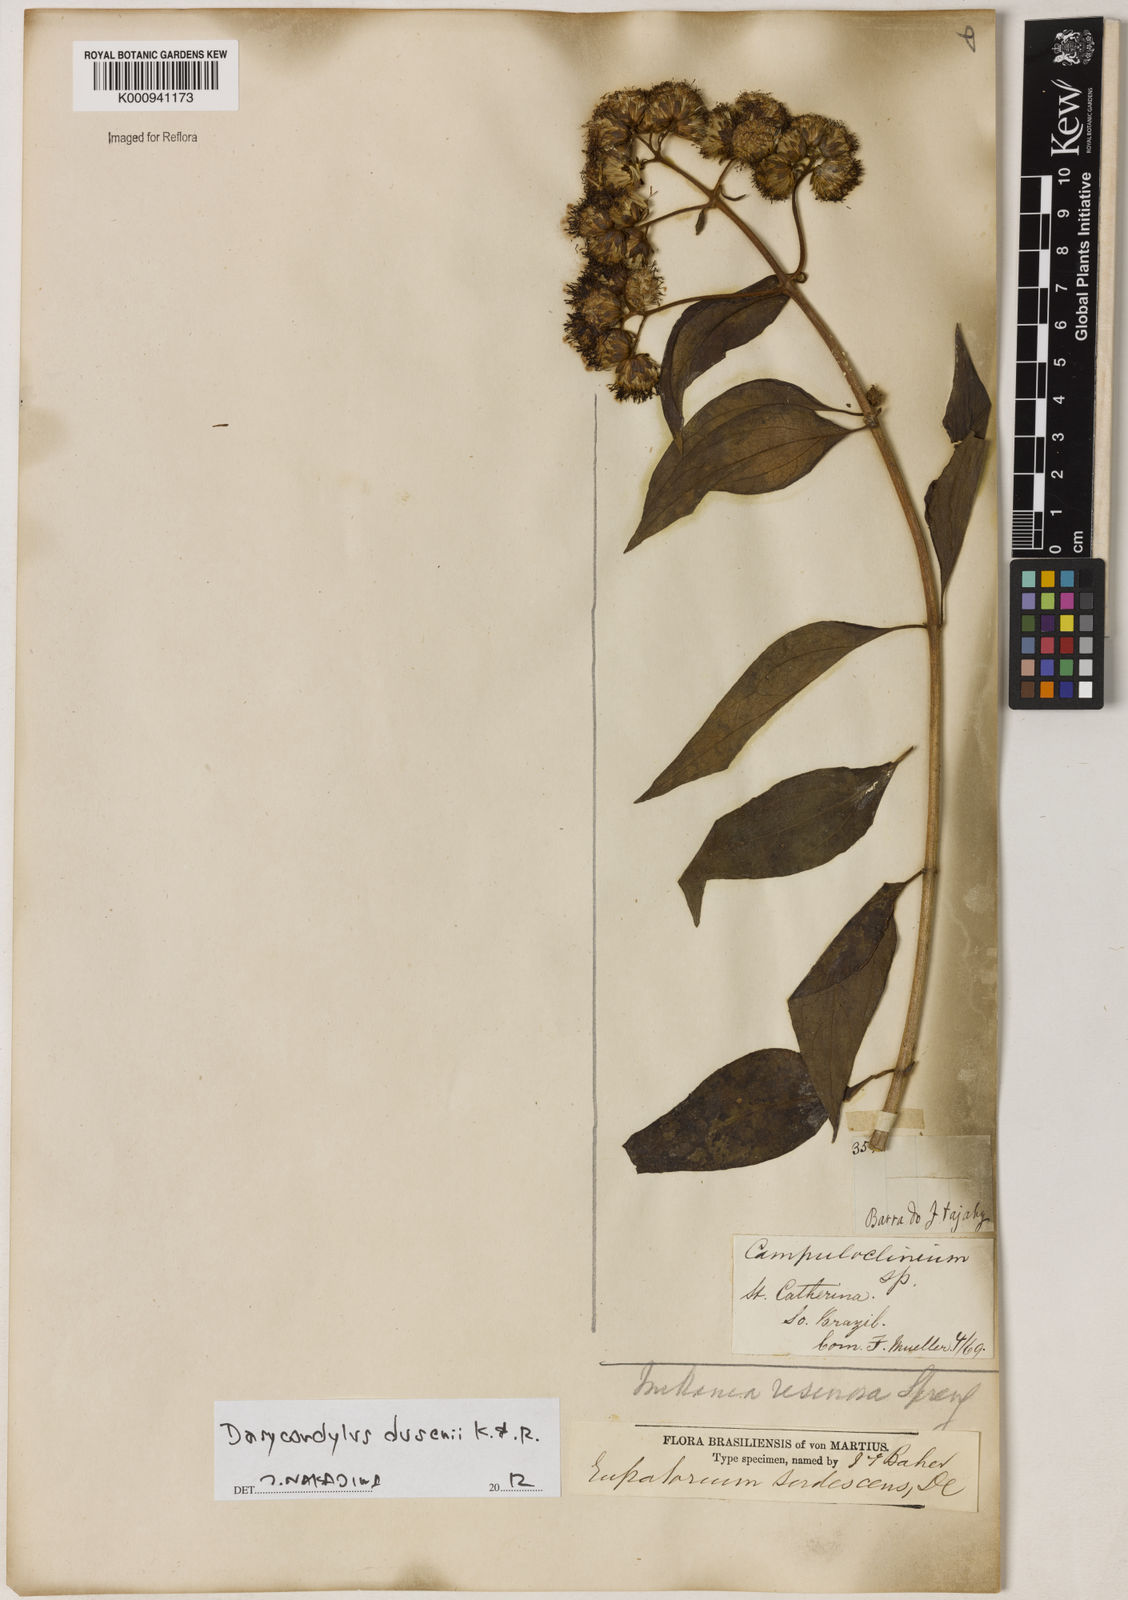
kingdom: Plantae
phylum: Tracheophyta
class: Magnoliopsida
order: Asterales
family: Asteraceae
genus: Dasycondylus
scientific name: Dasycondylus dusenii
